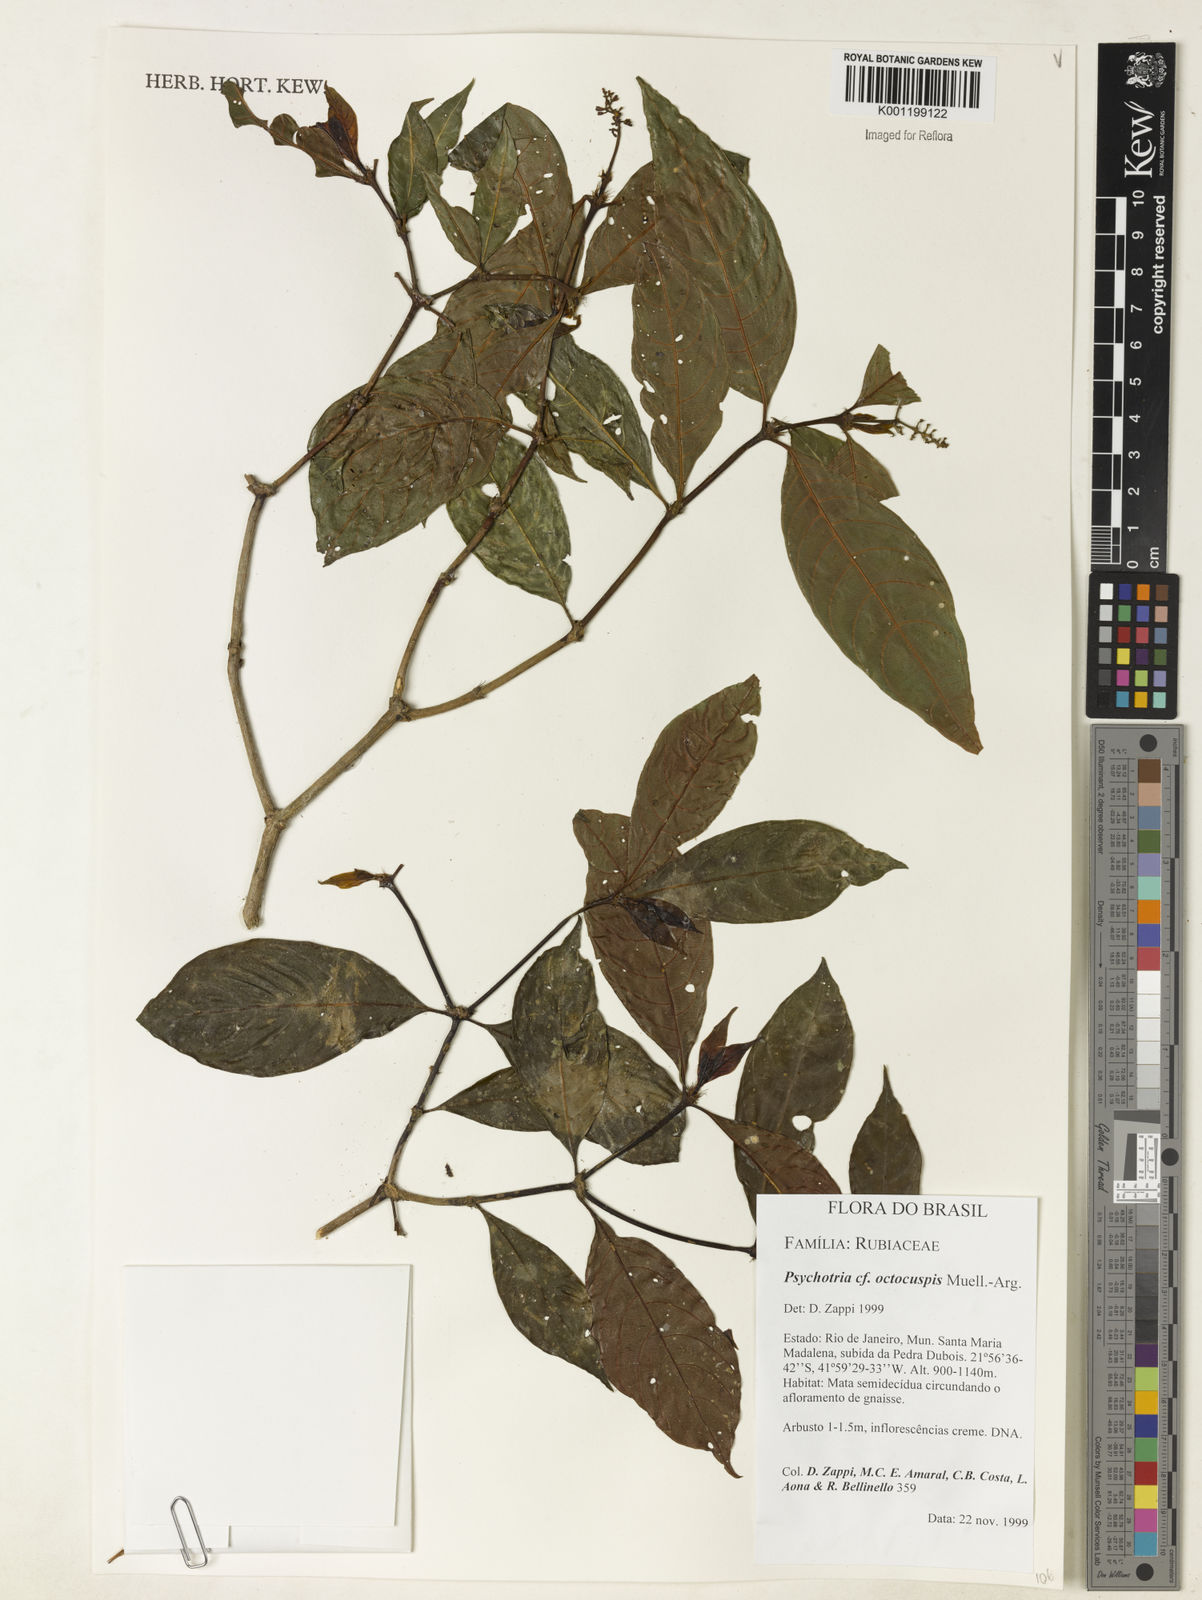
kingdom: Plantae
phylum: Tracheophyta
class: Magnoliopsida
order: Gentianales
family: Rubiaceae
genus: Psychotria
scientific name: Psychotria
